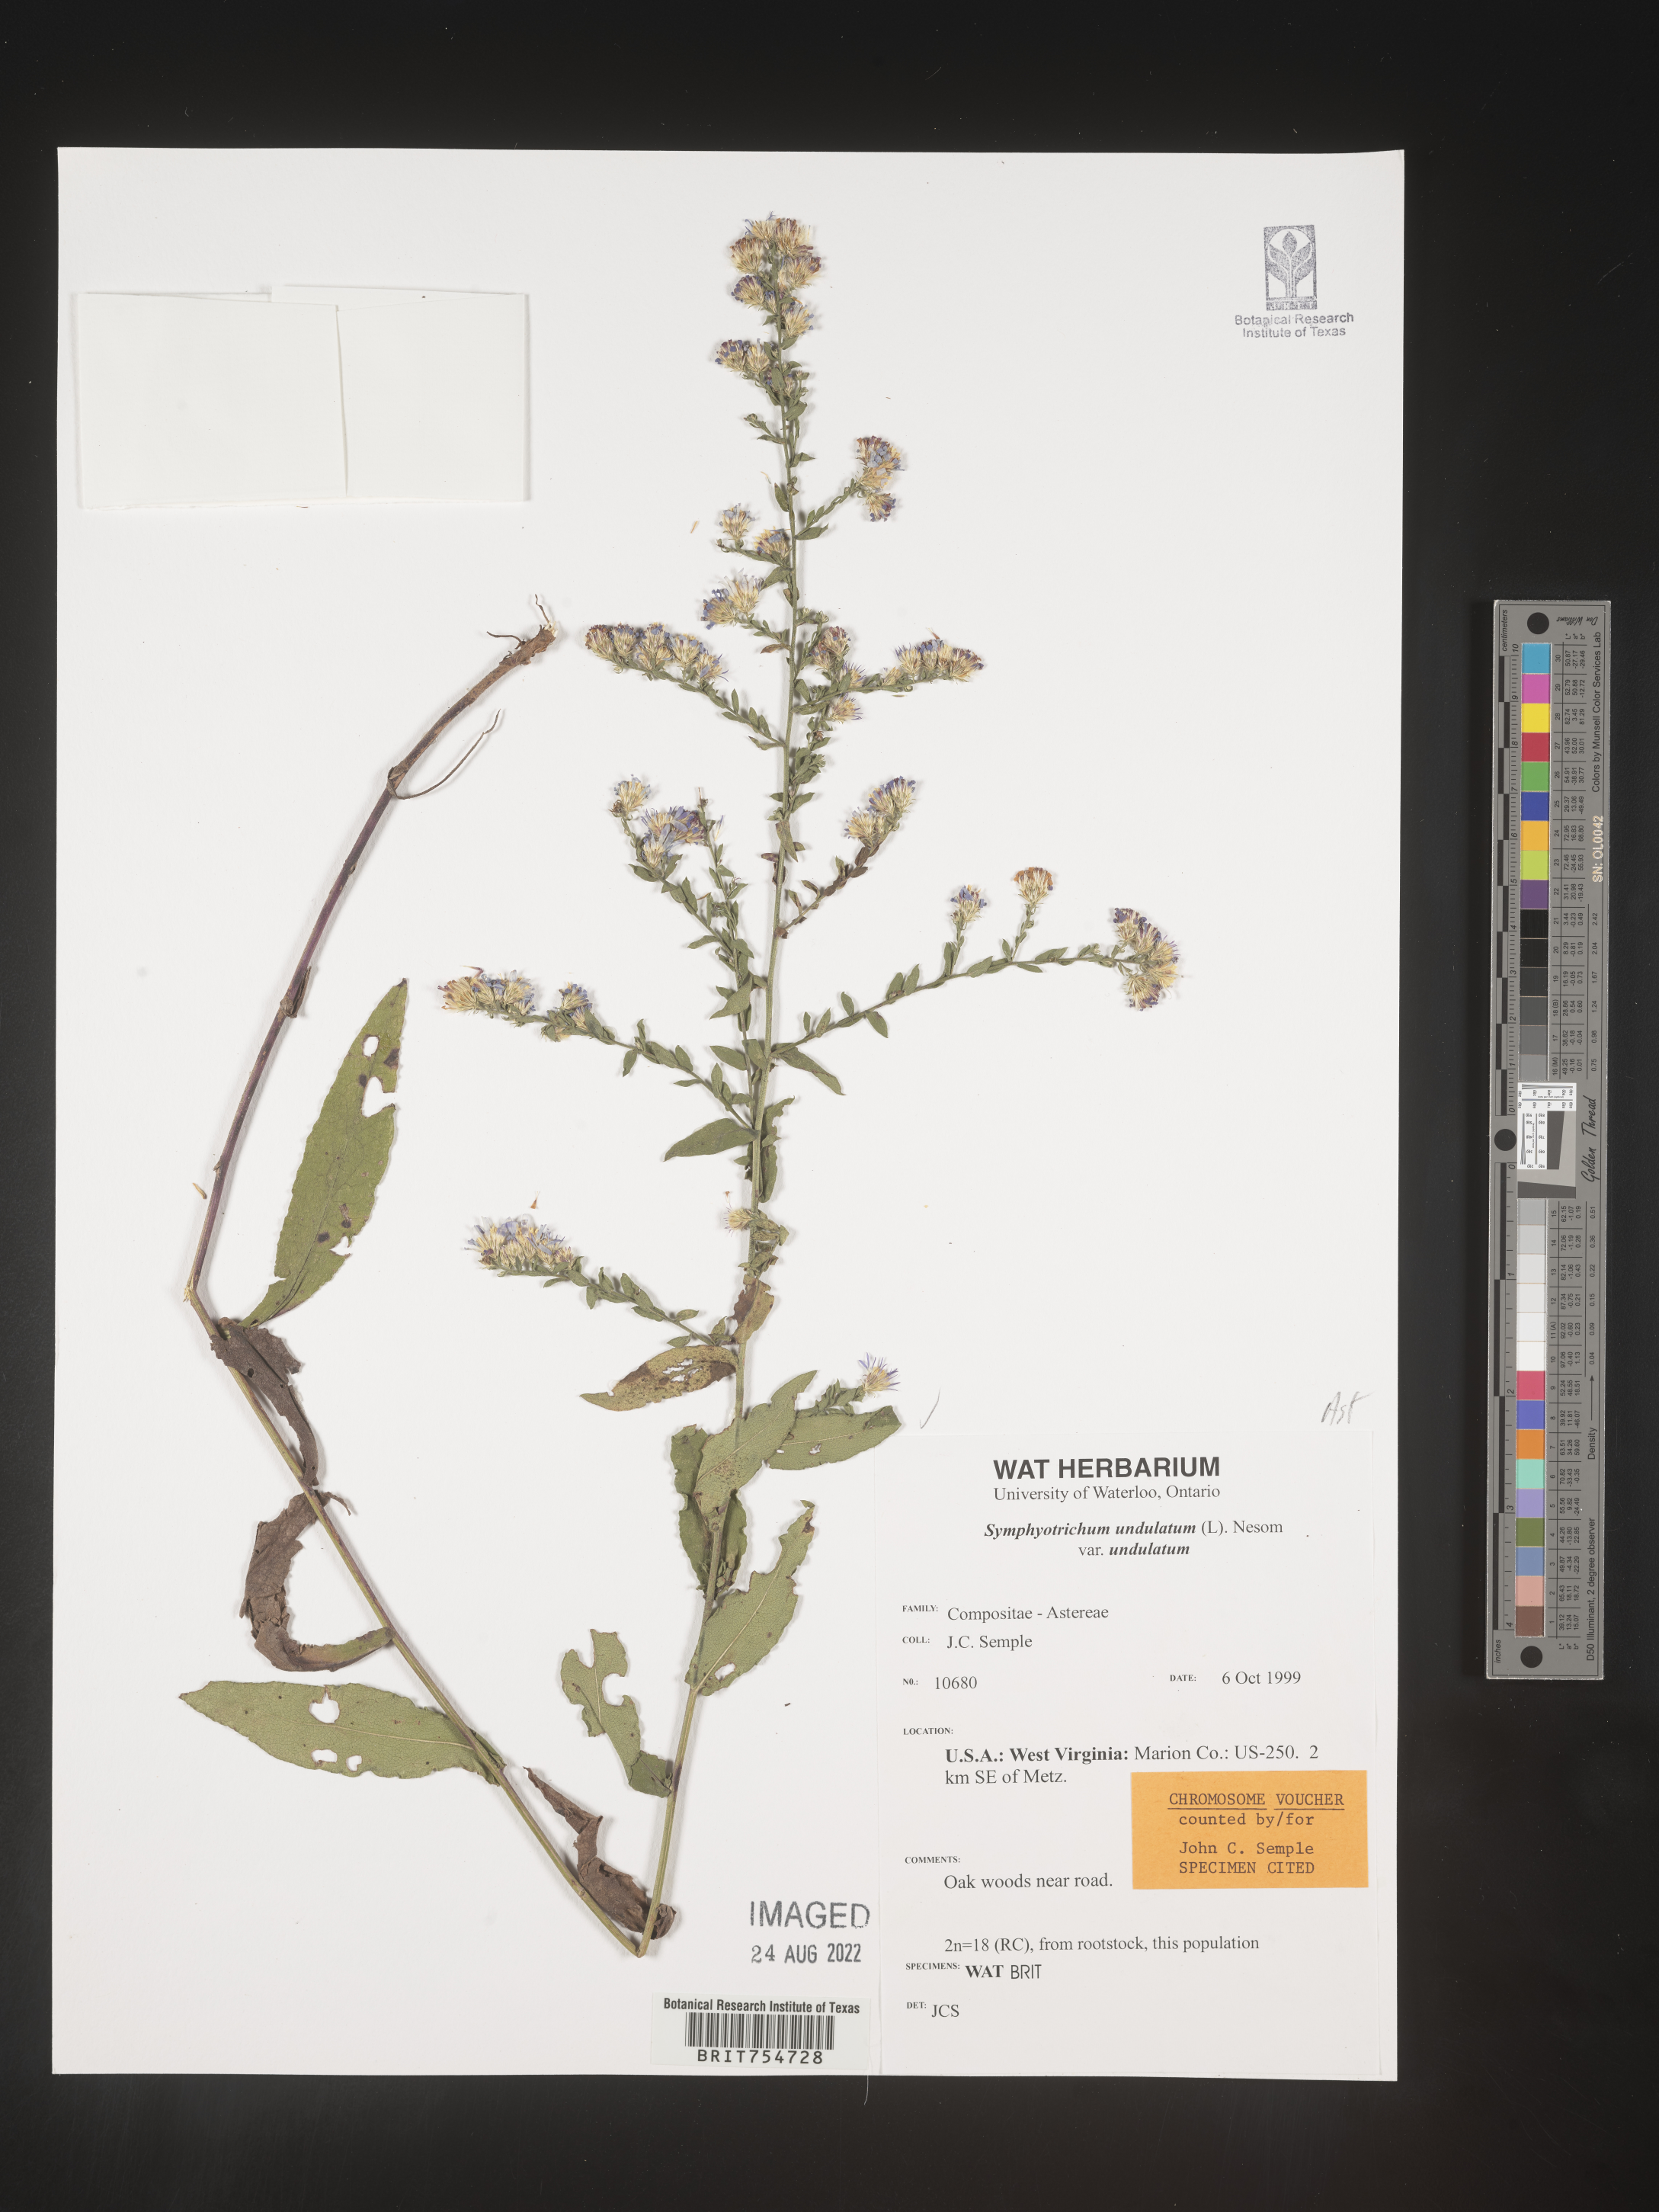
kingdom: Plantae
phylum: Tracheophyta
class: Magnoliopsida
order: Asterales
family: Asteraceae
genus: Symphyotrichum
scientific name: Symphyotrichum undulatum
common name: Clasping heart-leaf aster
